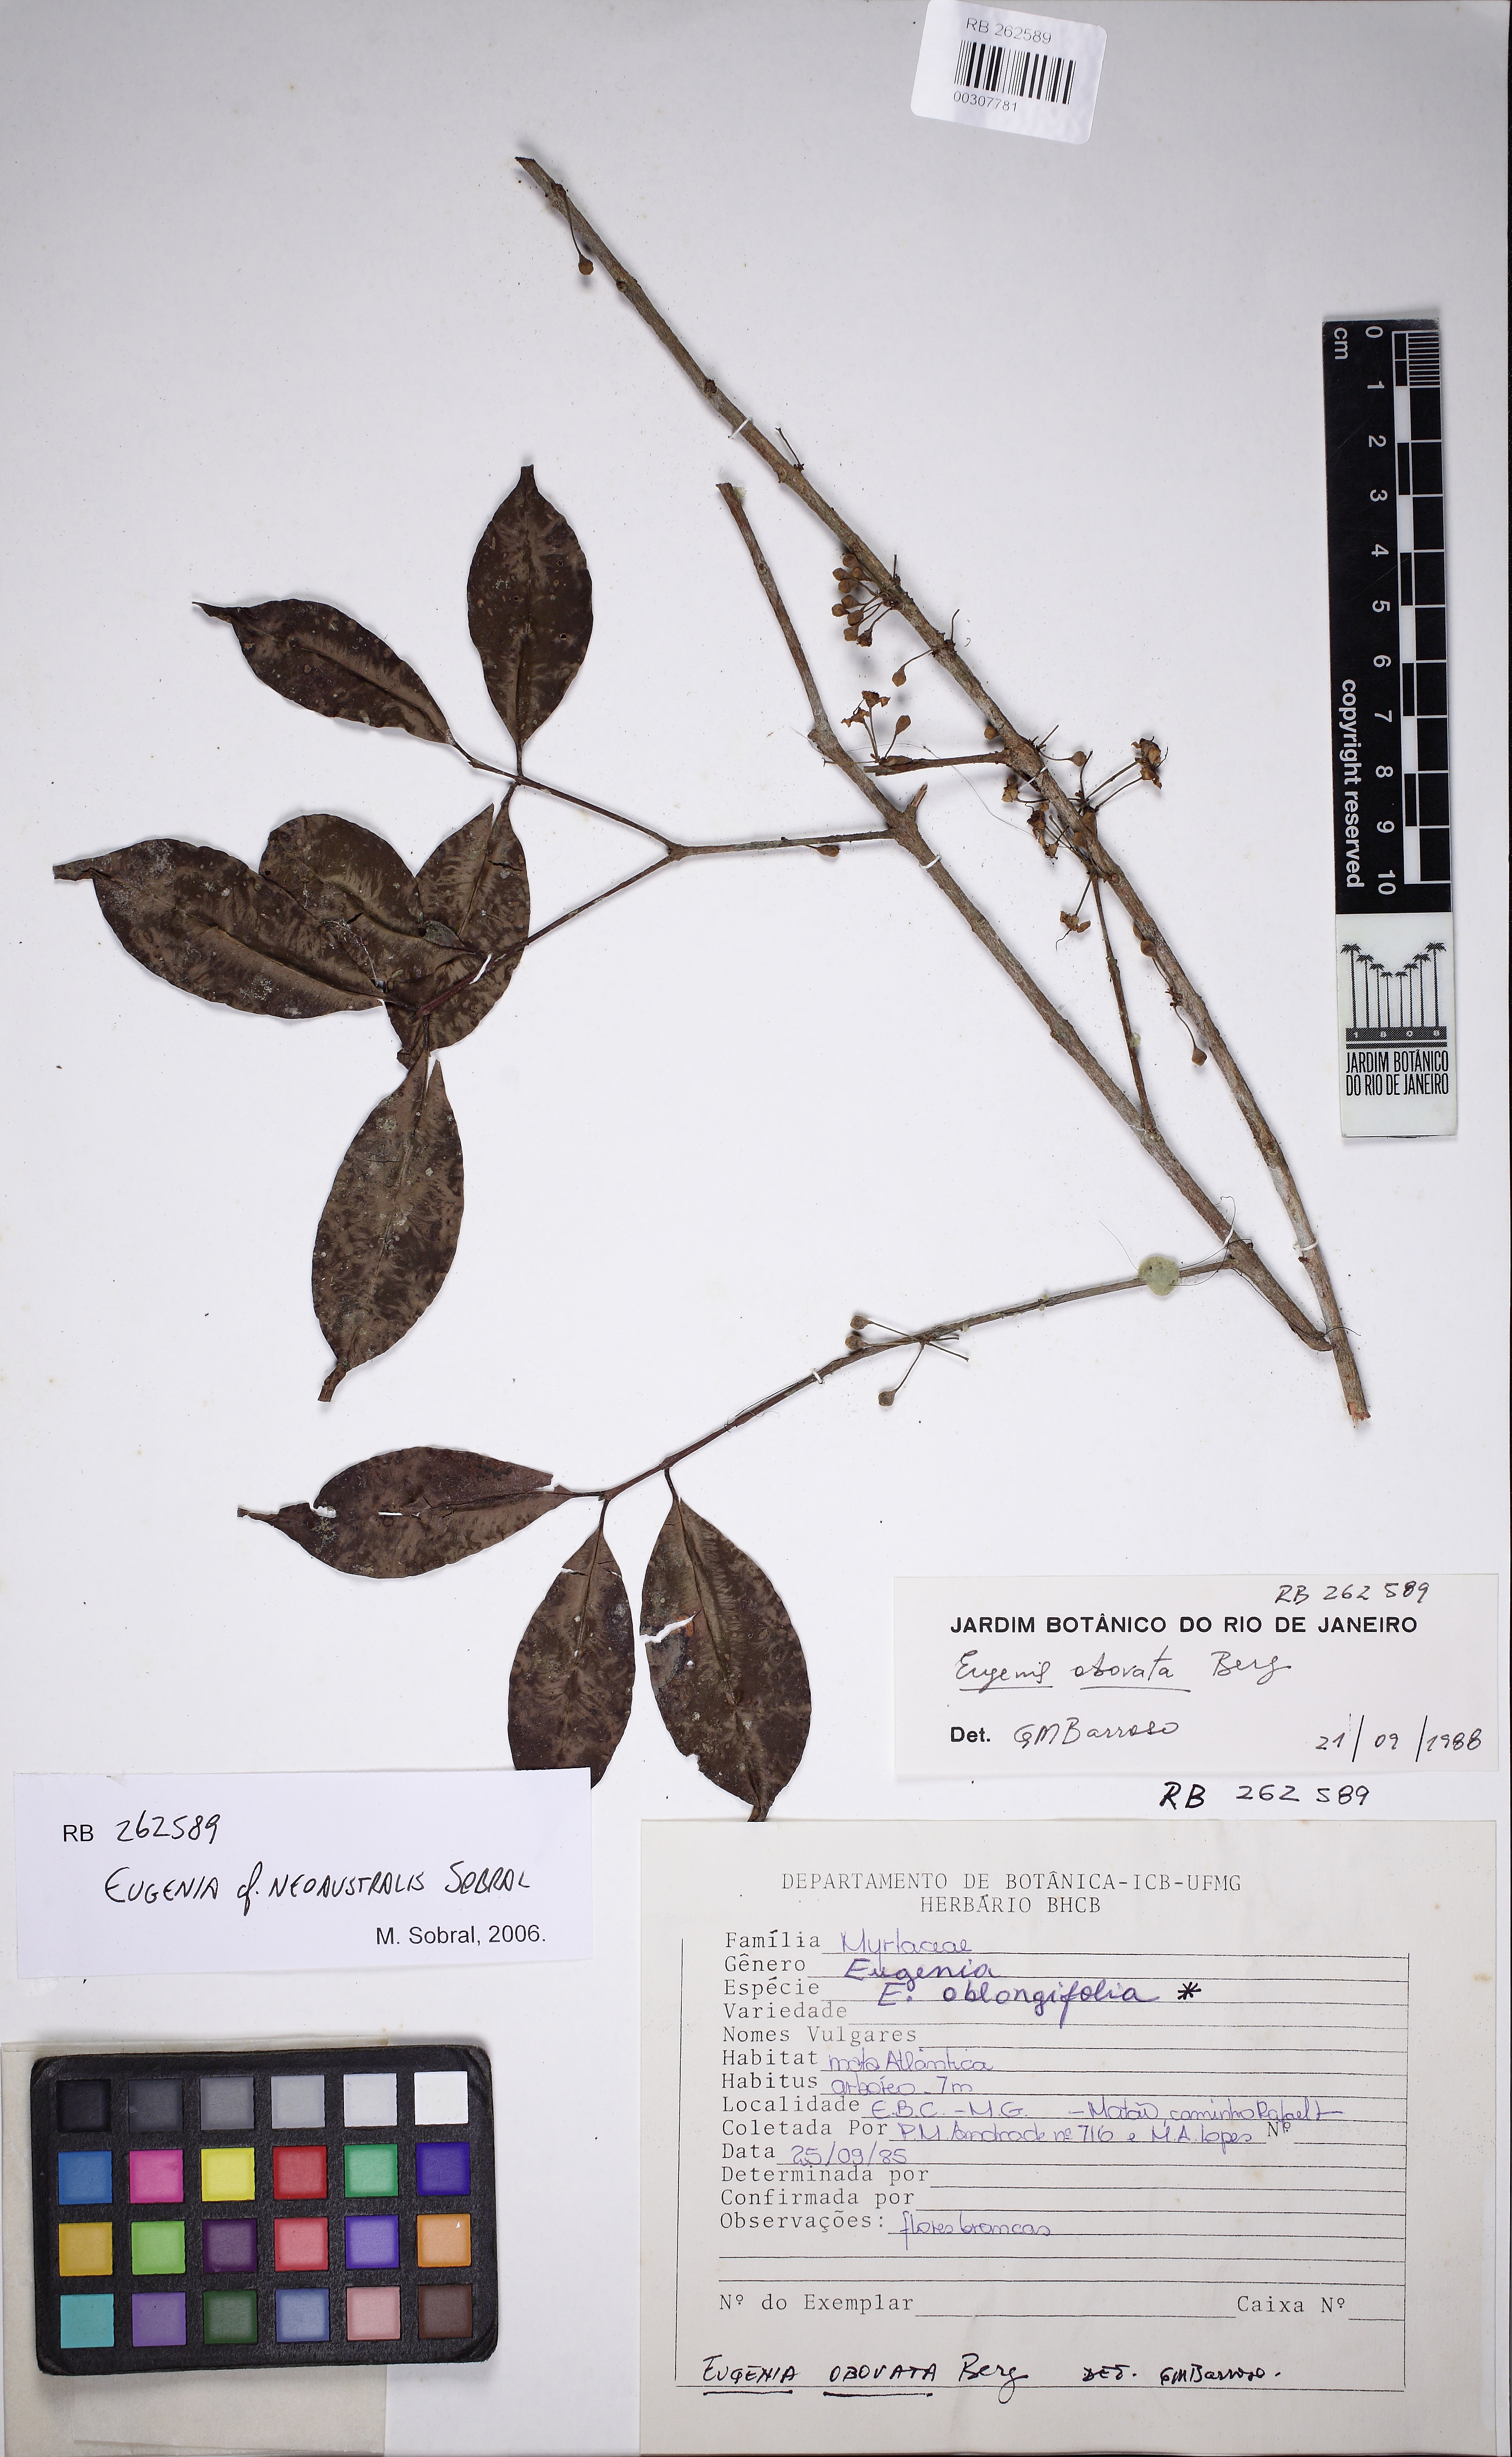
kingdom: Plantae
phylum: Tracheophyta
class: Magnoliopsida
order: Myrtales
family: Myrtaceae
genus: Eugenia
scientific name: Eugenia brevistyla
